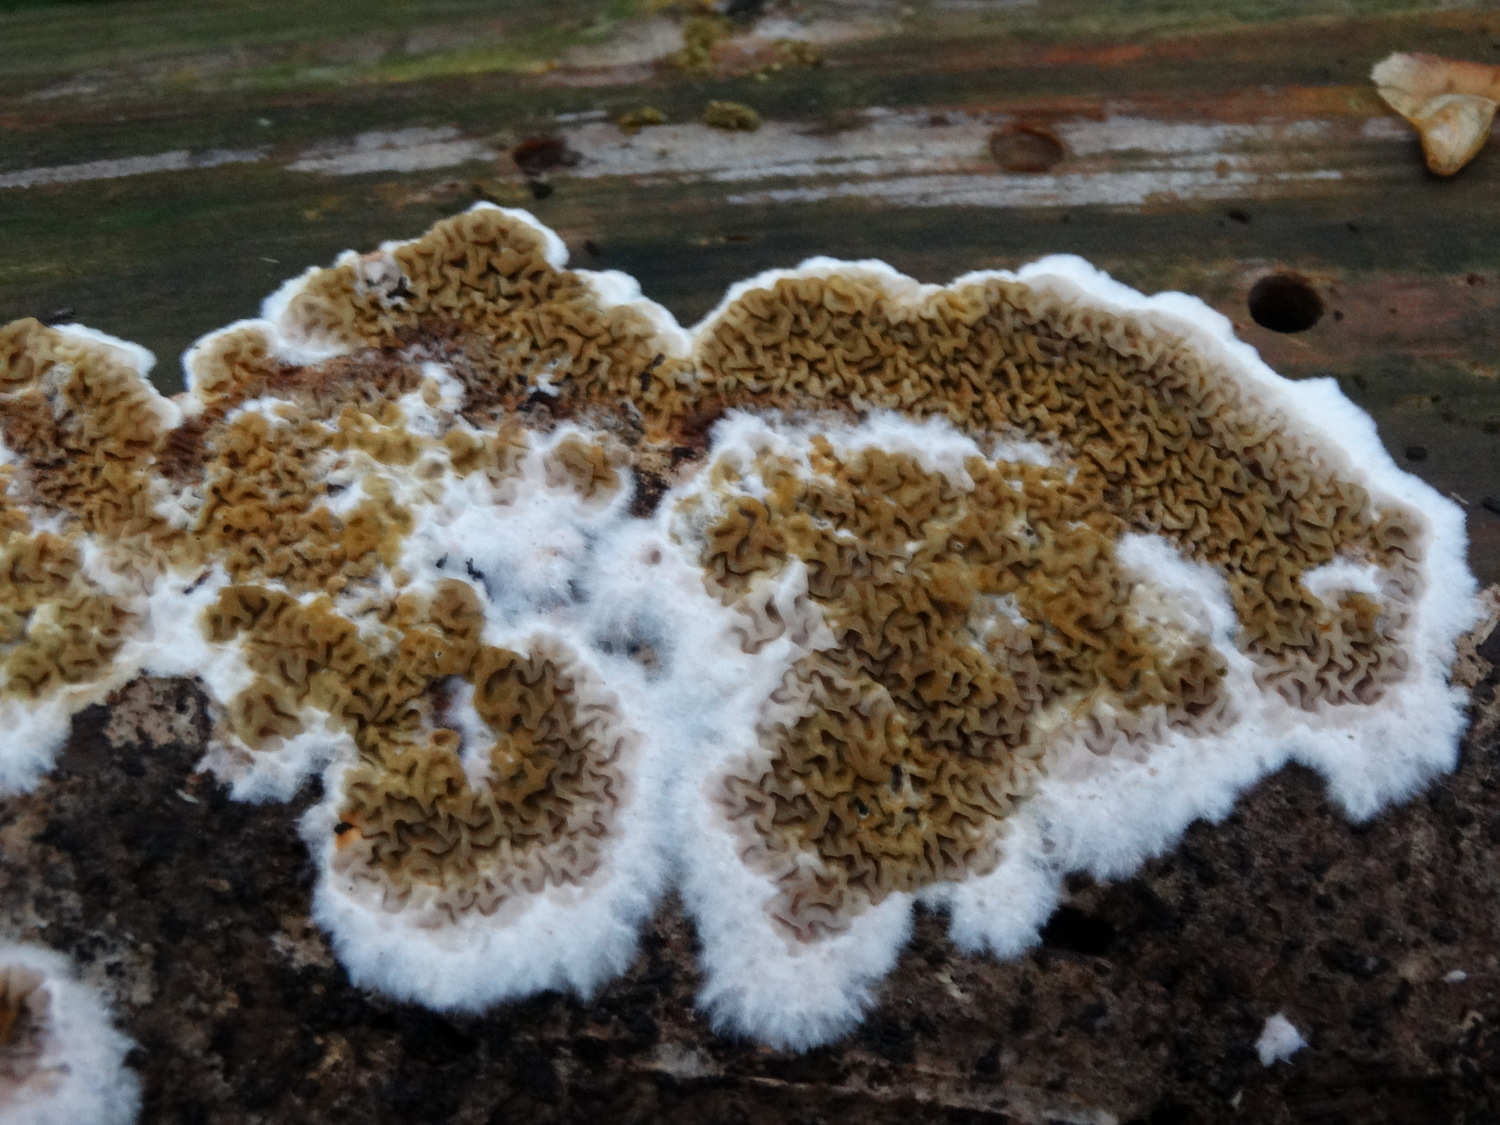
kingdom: Fungi
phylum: Basidiomycota
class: Agaricomycetes
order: Boletales
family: Serpulaceae
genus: Serpula
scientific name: Serpula himantioides
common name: tyndkødet hussvamp
